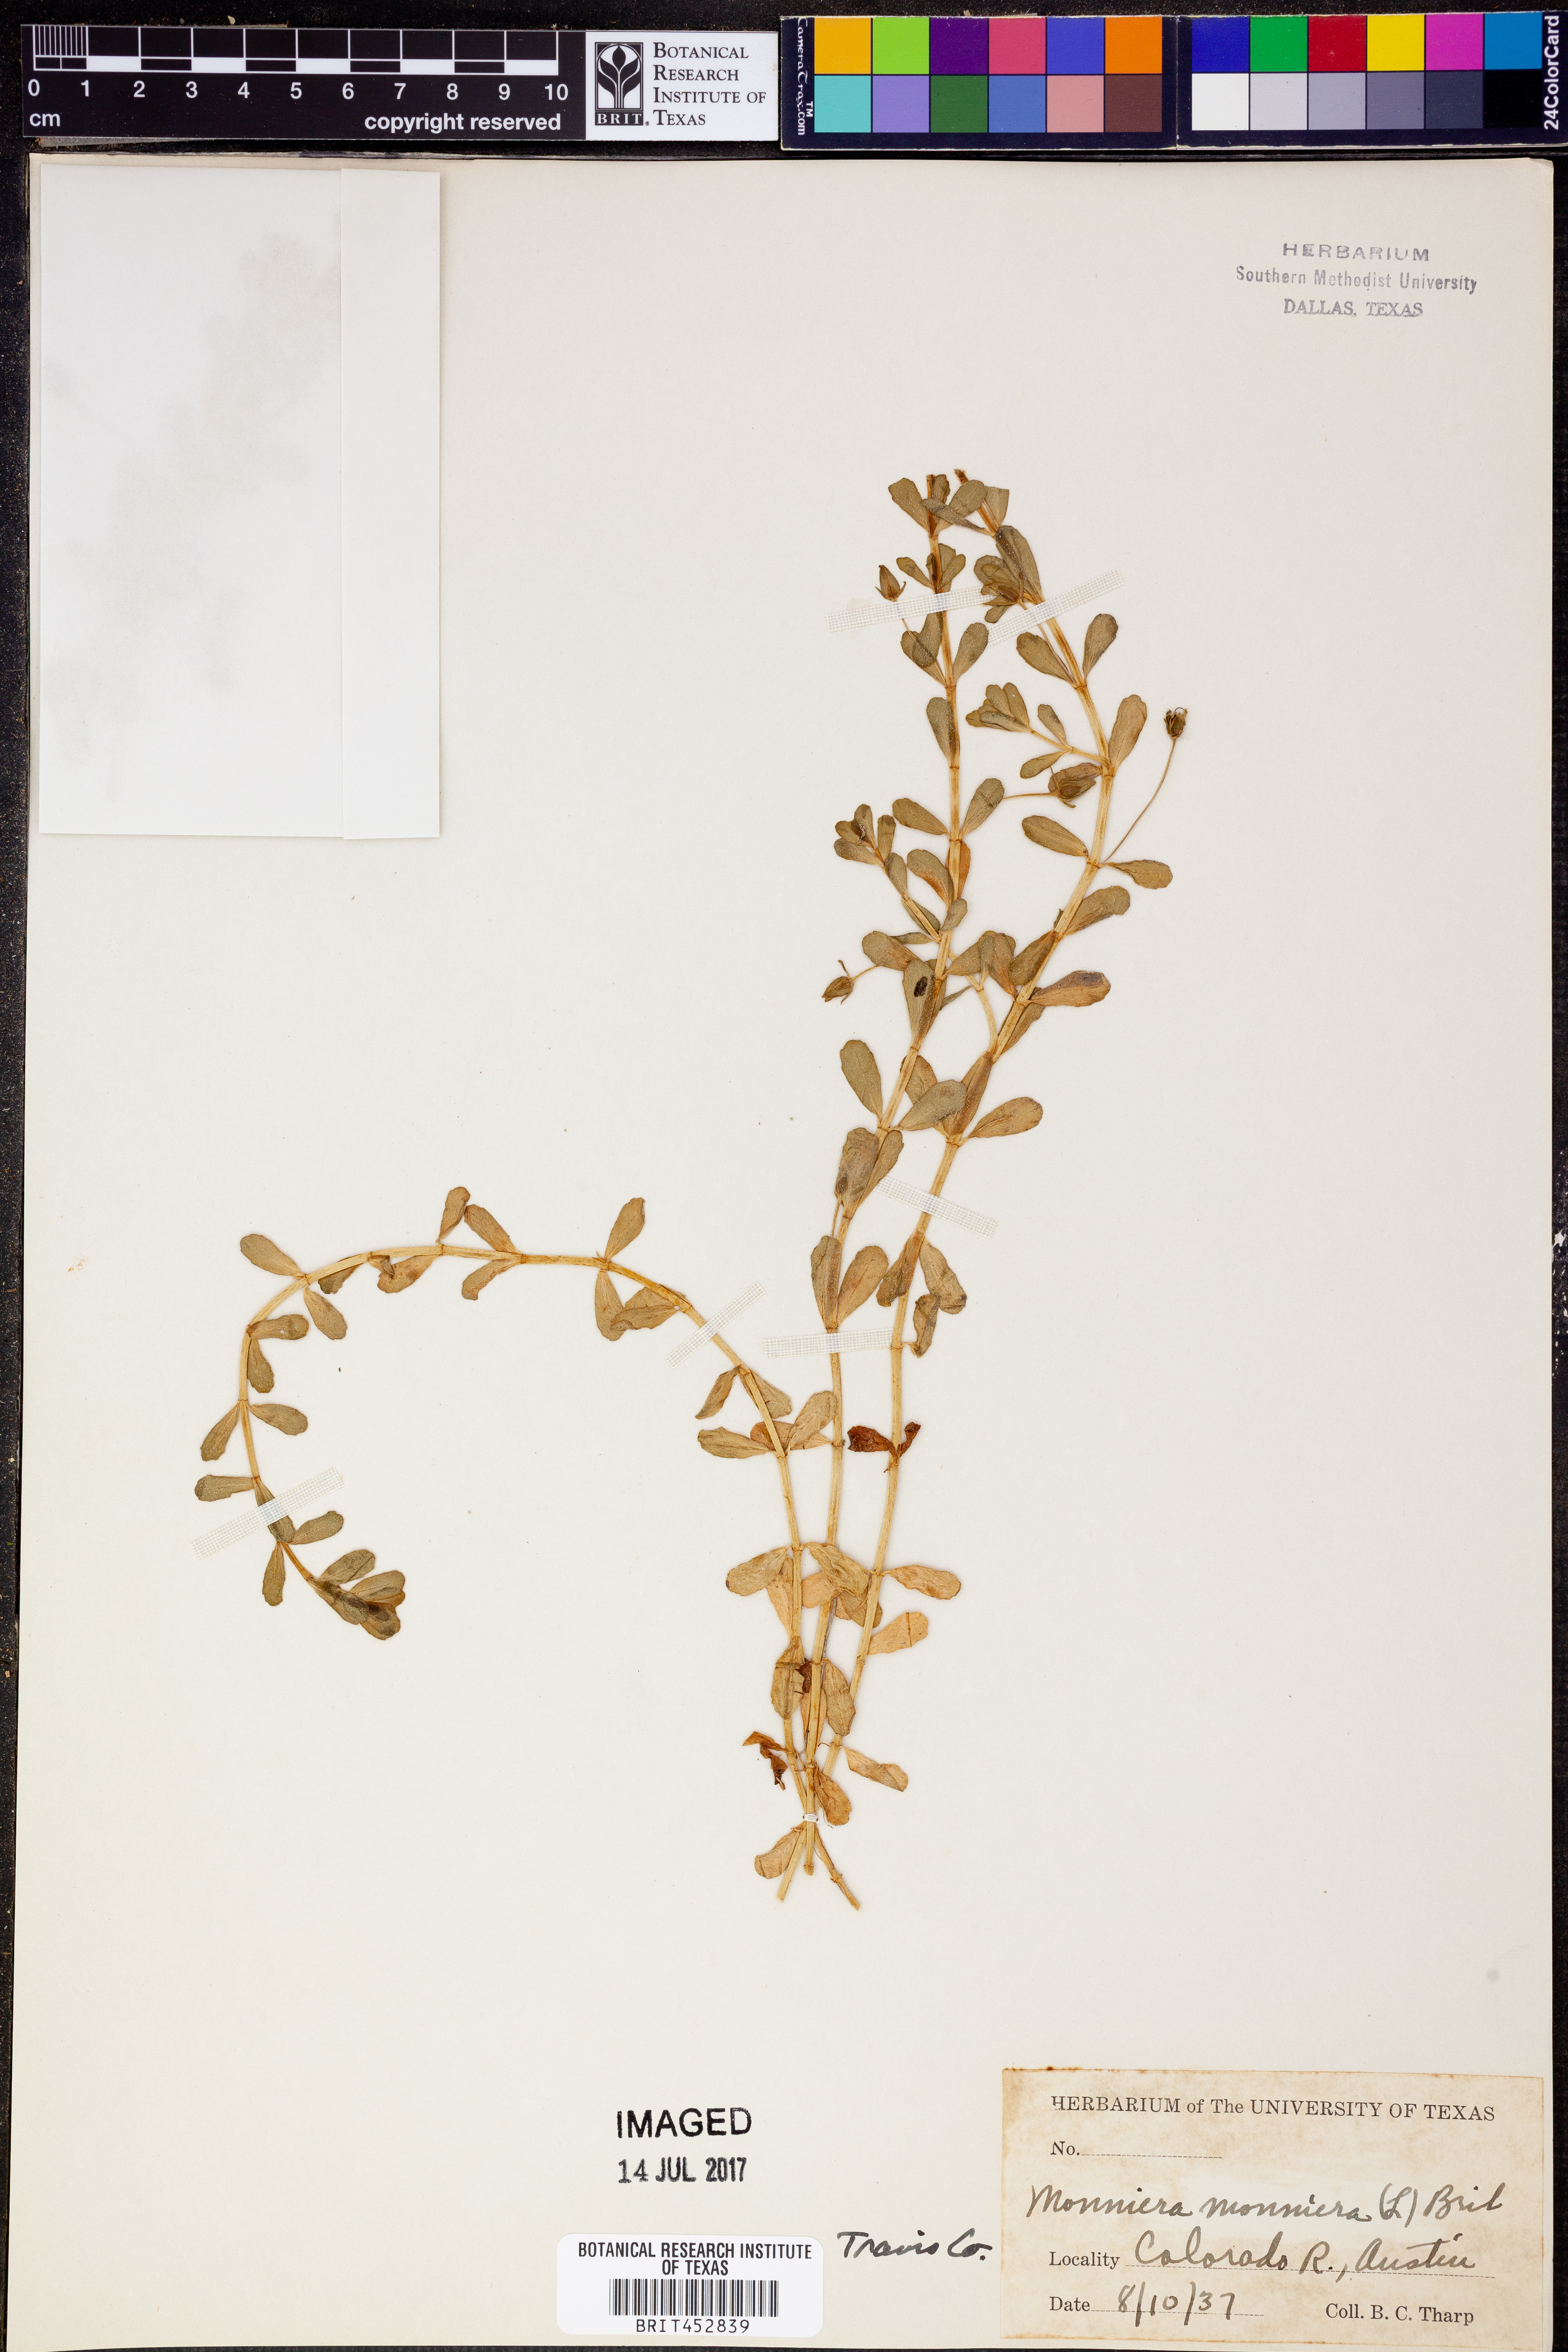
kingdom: Plantae
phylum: Tracheophyta
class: Magnoliopsida
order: Lamiales
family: Plantaginaceae
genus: Bacopa
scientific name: Bacopa monnieri
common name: Indian-pennywort
